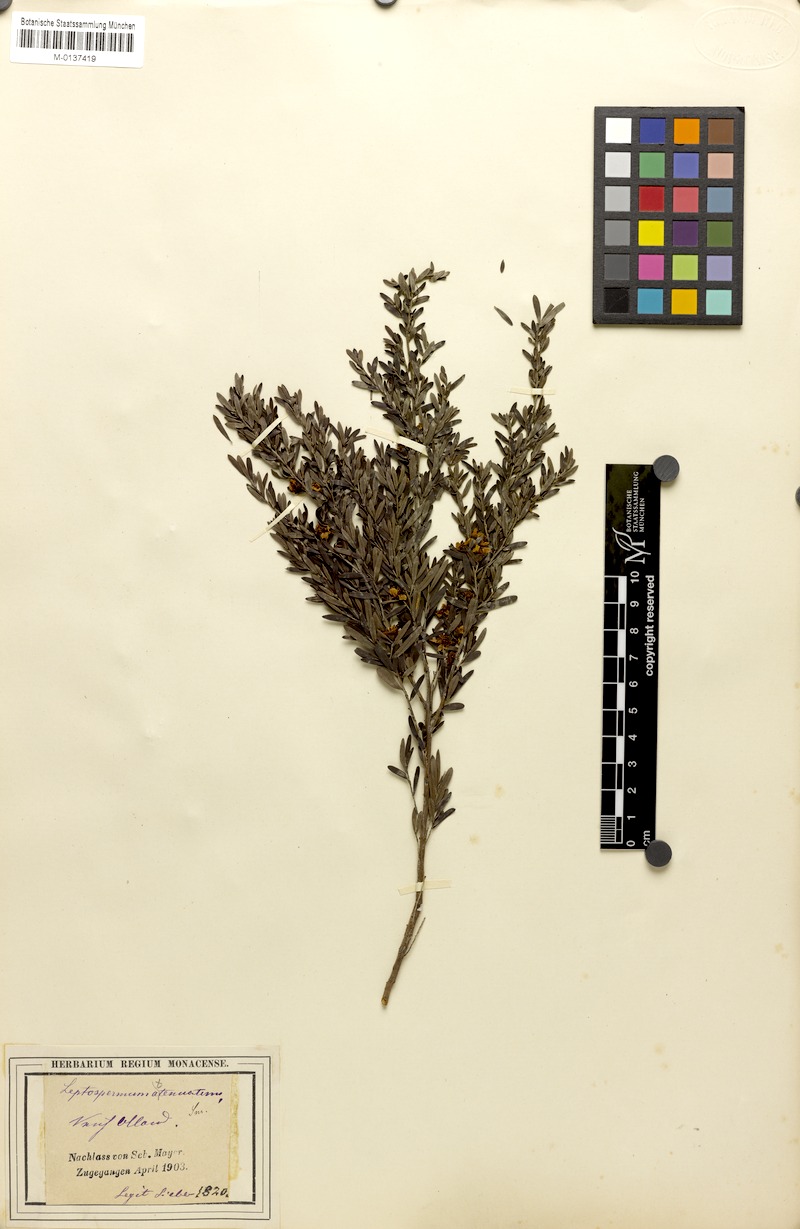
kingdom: Plantae
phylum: Tracheophyta
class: Magnoliopsida
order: Myrtales
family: Myrtaceae
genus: Leptospermum
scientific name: Leptospermum trinervium
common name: Flaky-barked tea-tree
